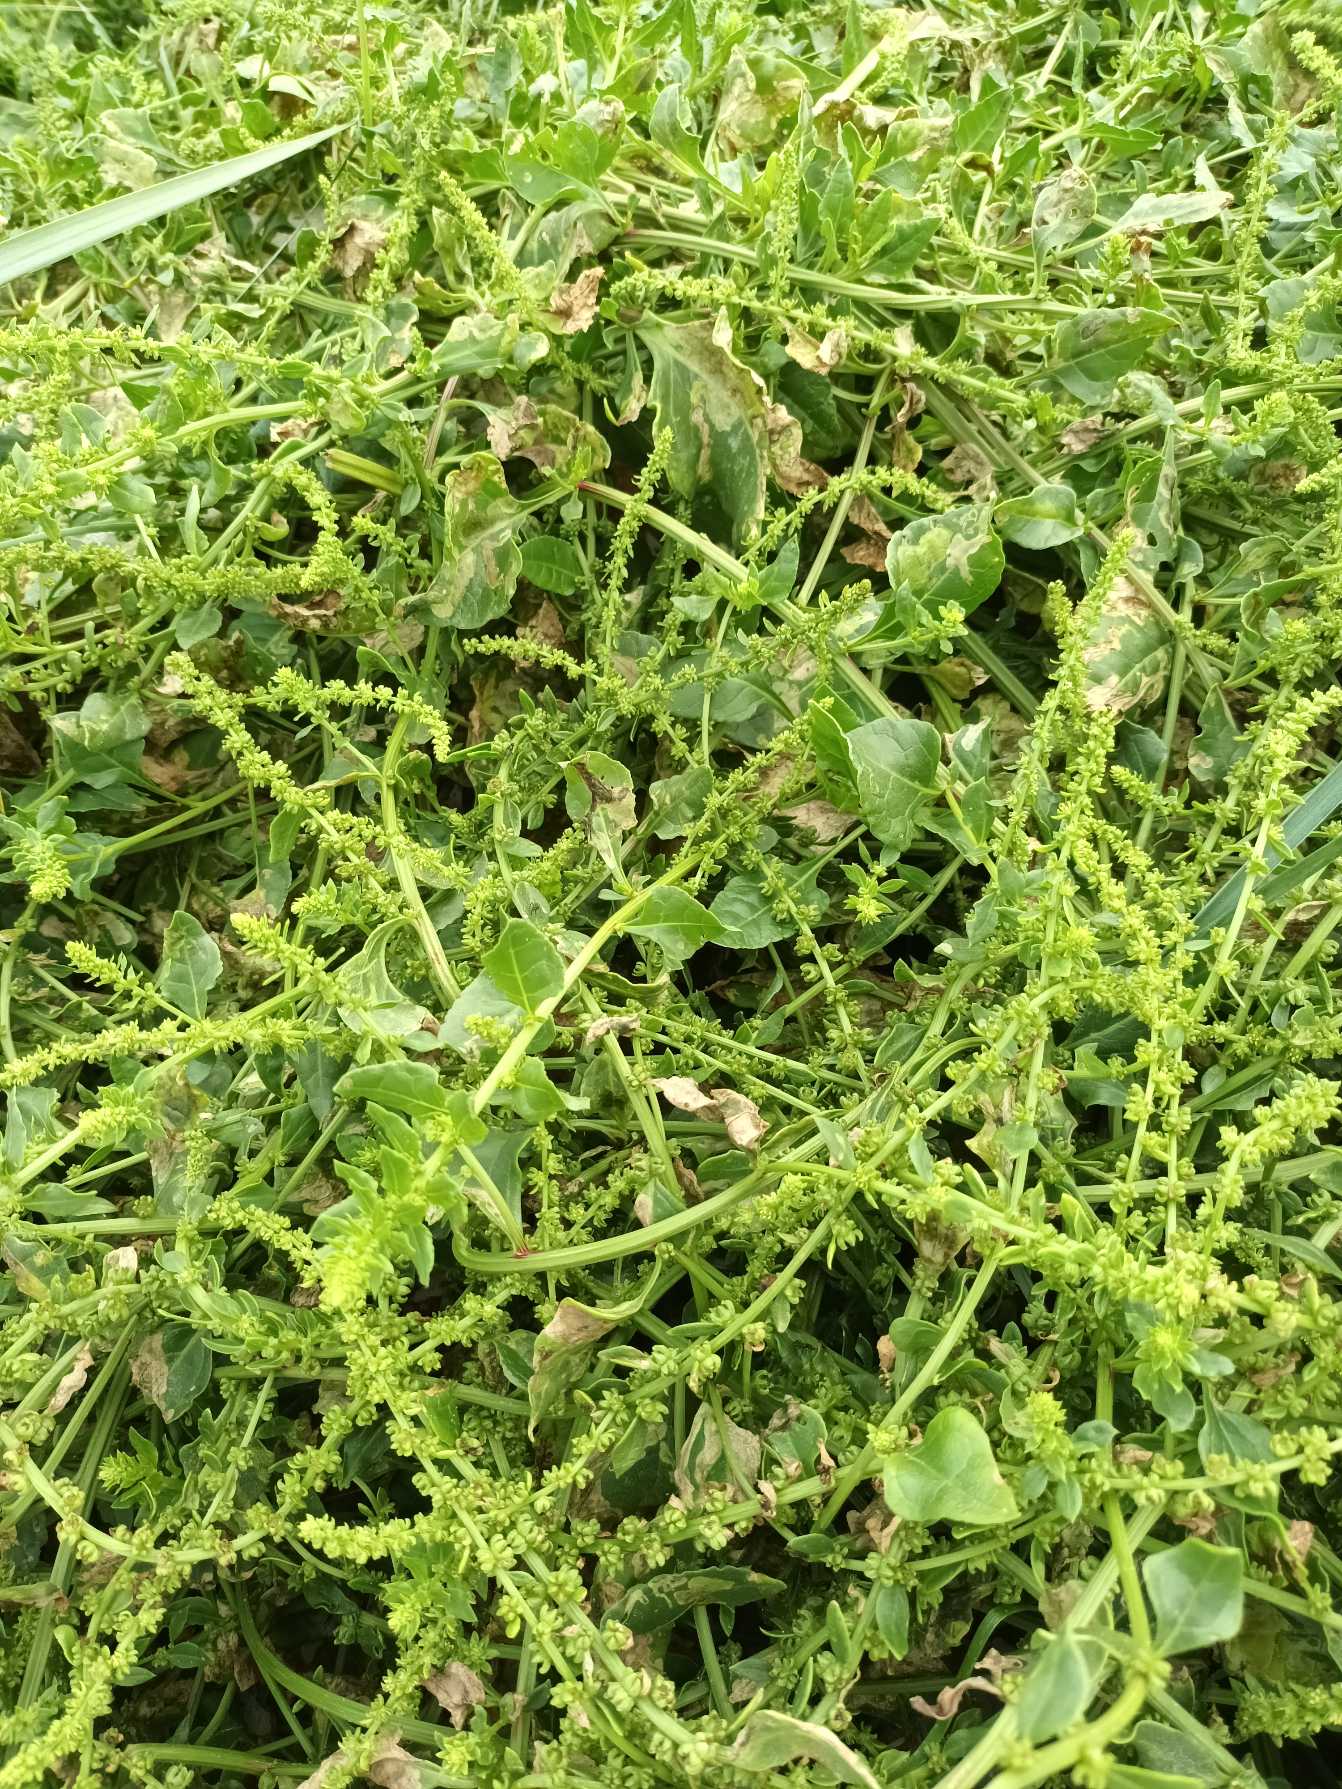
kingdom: Plantae
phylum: Tracheophyta
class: Magnoliopsida
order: Caryophyllales
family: Amaranthaceae
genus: Beta
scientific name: Beta maritima
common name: Strand-bede
